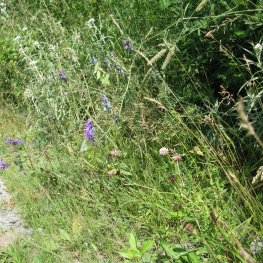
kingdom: Animalia
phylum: Arthropoda
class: Insecta
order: Lepidoptera
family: Pieridae
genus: Pieris
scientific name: Pieris rapae
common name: Cabbage White
